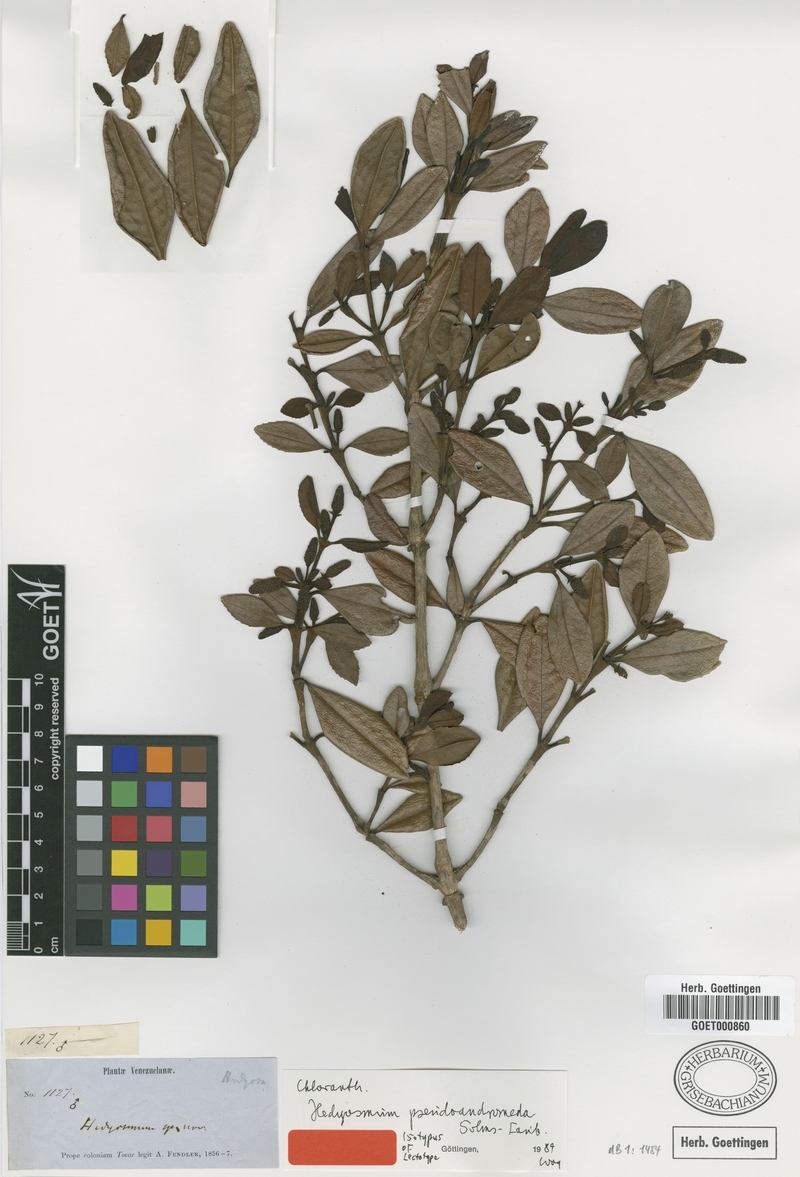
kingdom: Plantae
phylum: Tracheophyta
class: Magnoliopsida
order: Chloranthales
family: Chloranthaceae
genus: Hedyosmum
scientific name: Hedyosmum pseudoandromeda
